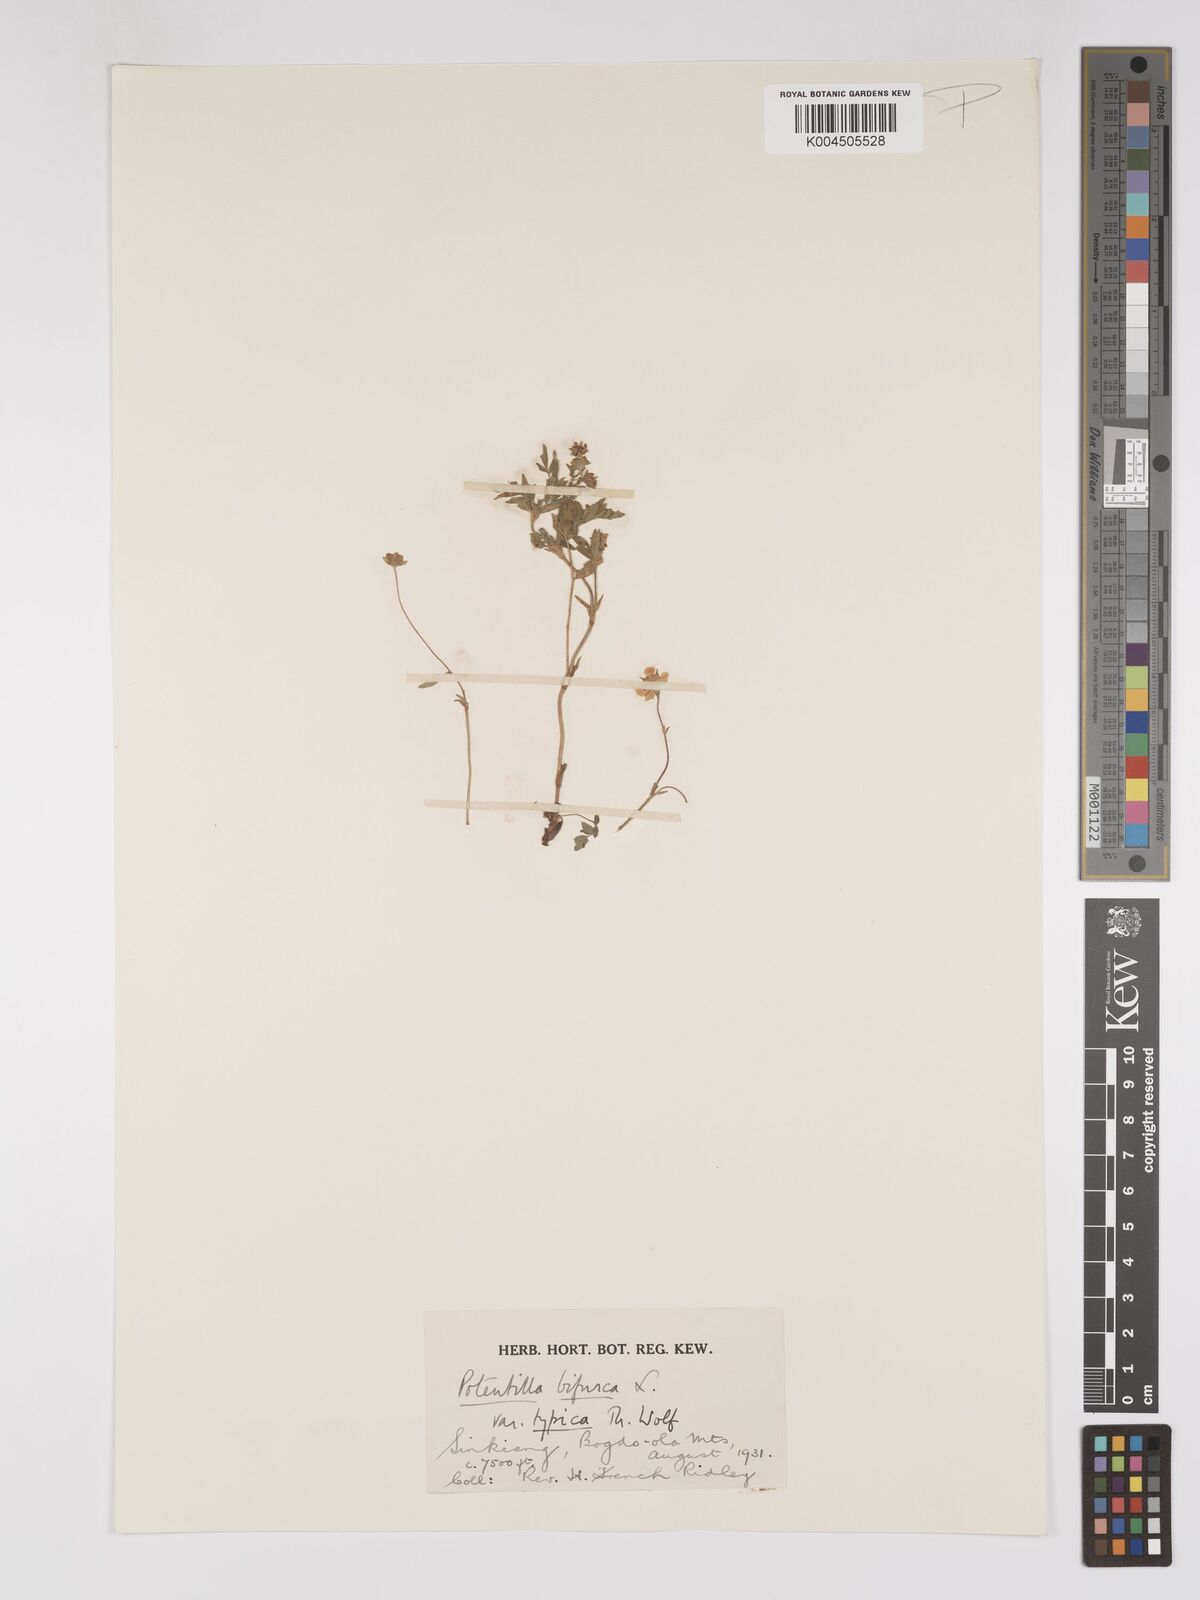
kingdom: Plantae
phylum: Tracheophyta
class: Magnoliopsida
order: Rosales
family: Rosaceae
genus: Sibbaldianthe
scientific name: Sibbaldianthe bifurca
